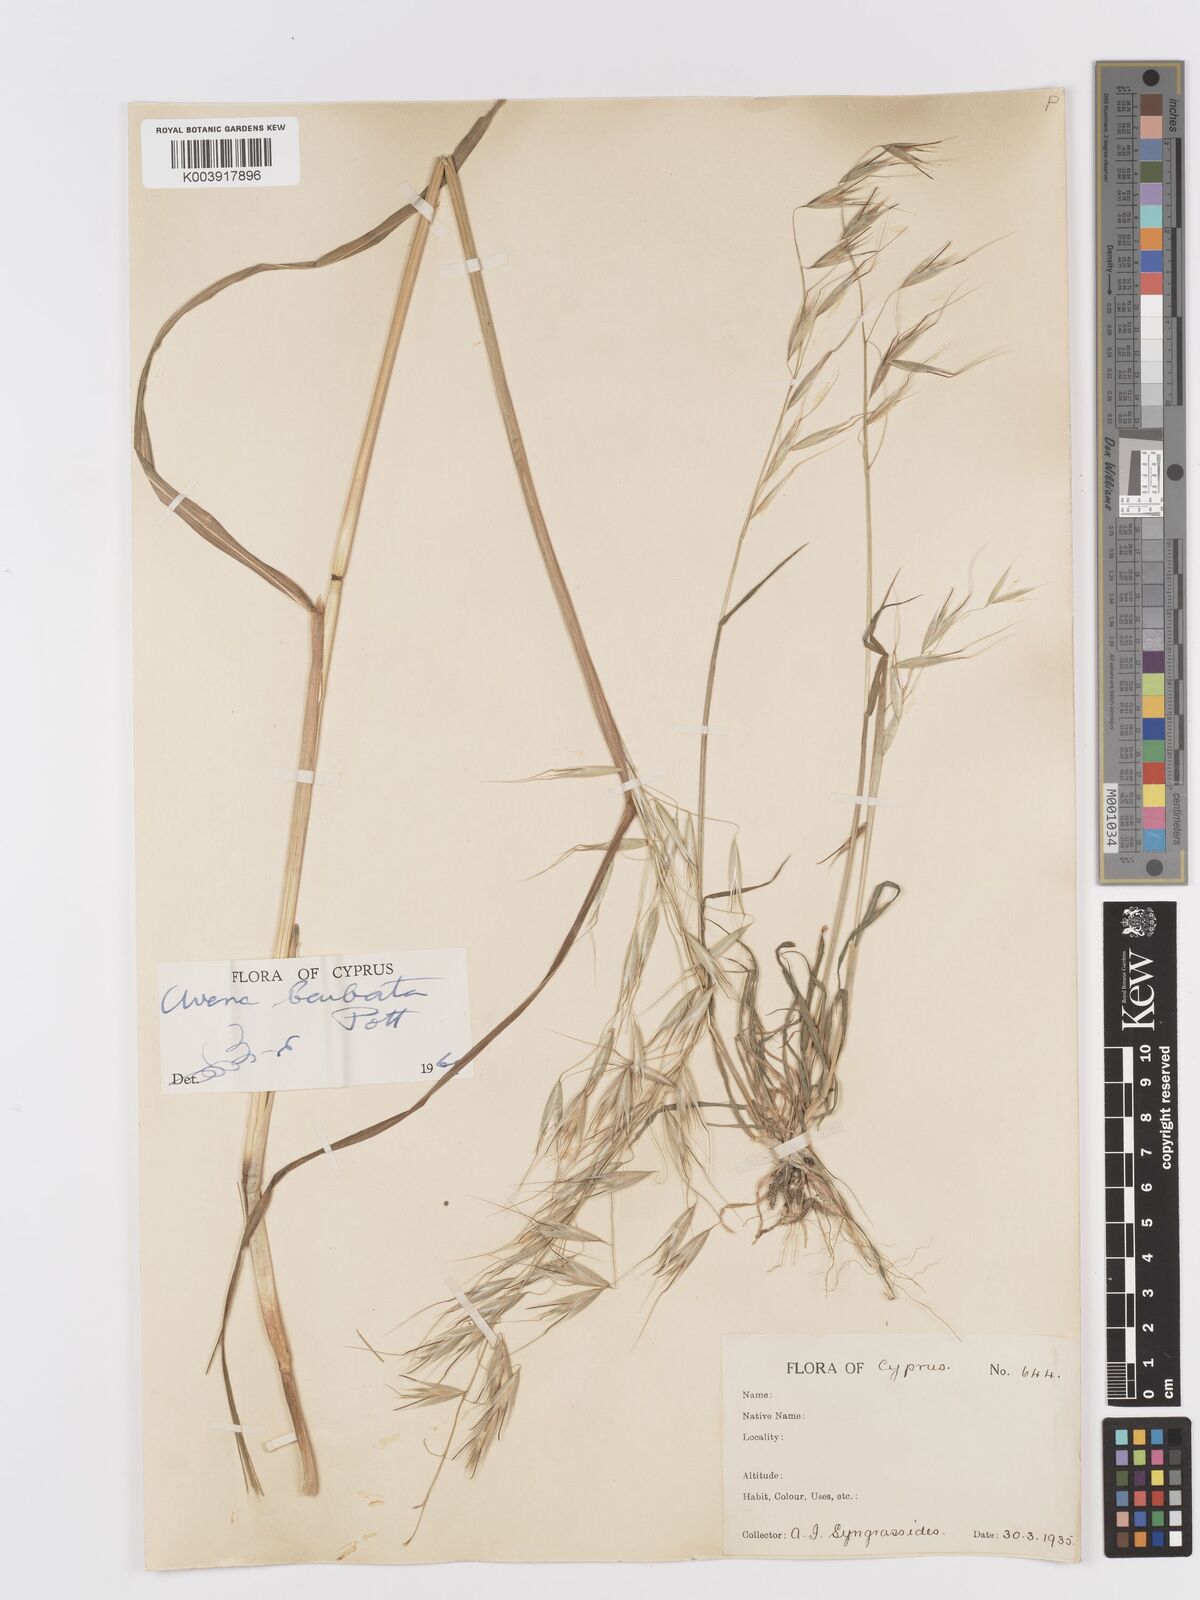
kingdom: Plantae
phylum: Tracheophyta
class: Liliopsida
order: Poales
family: Poaceae
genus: Avena
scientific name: Avena
